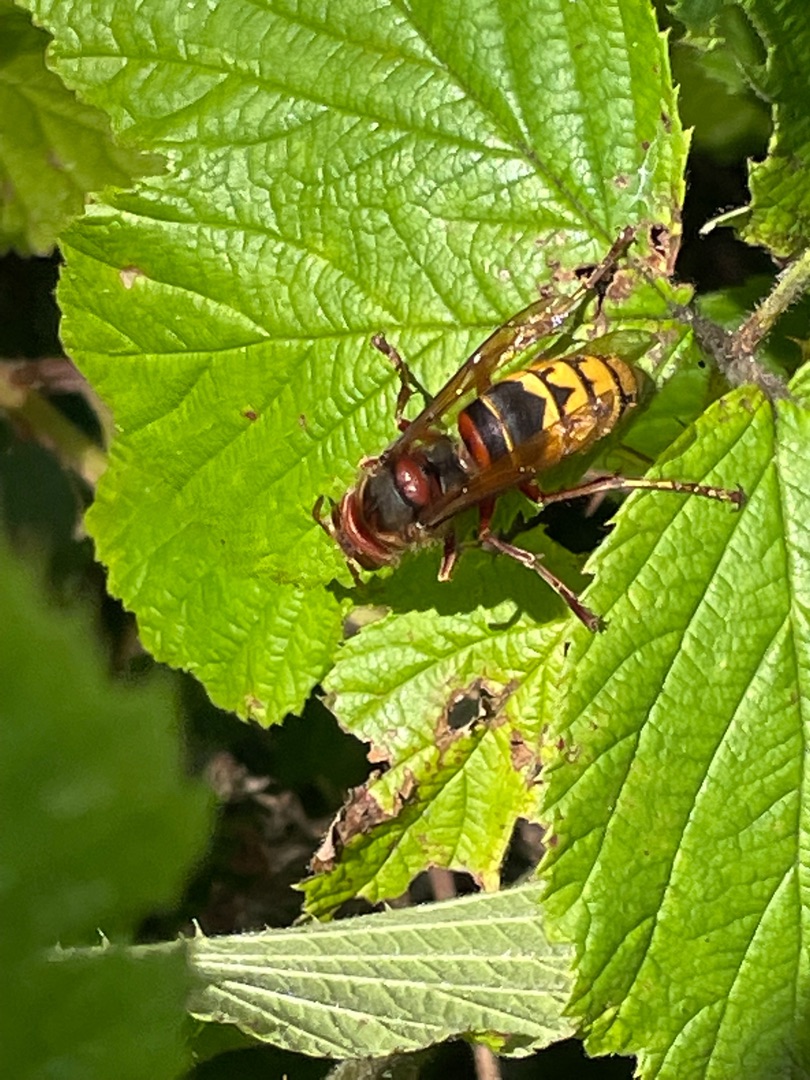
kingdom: Animalia
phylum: Arthropoda
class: Insecta
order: Hymenoptera
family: Vespidae
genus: Vespa
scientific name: Vespa crabro
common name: Stor gedehams
